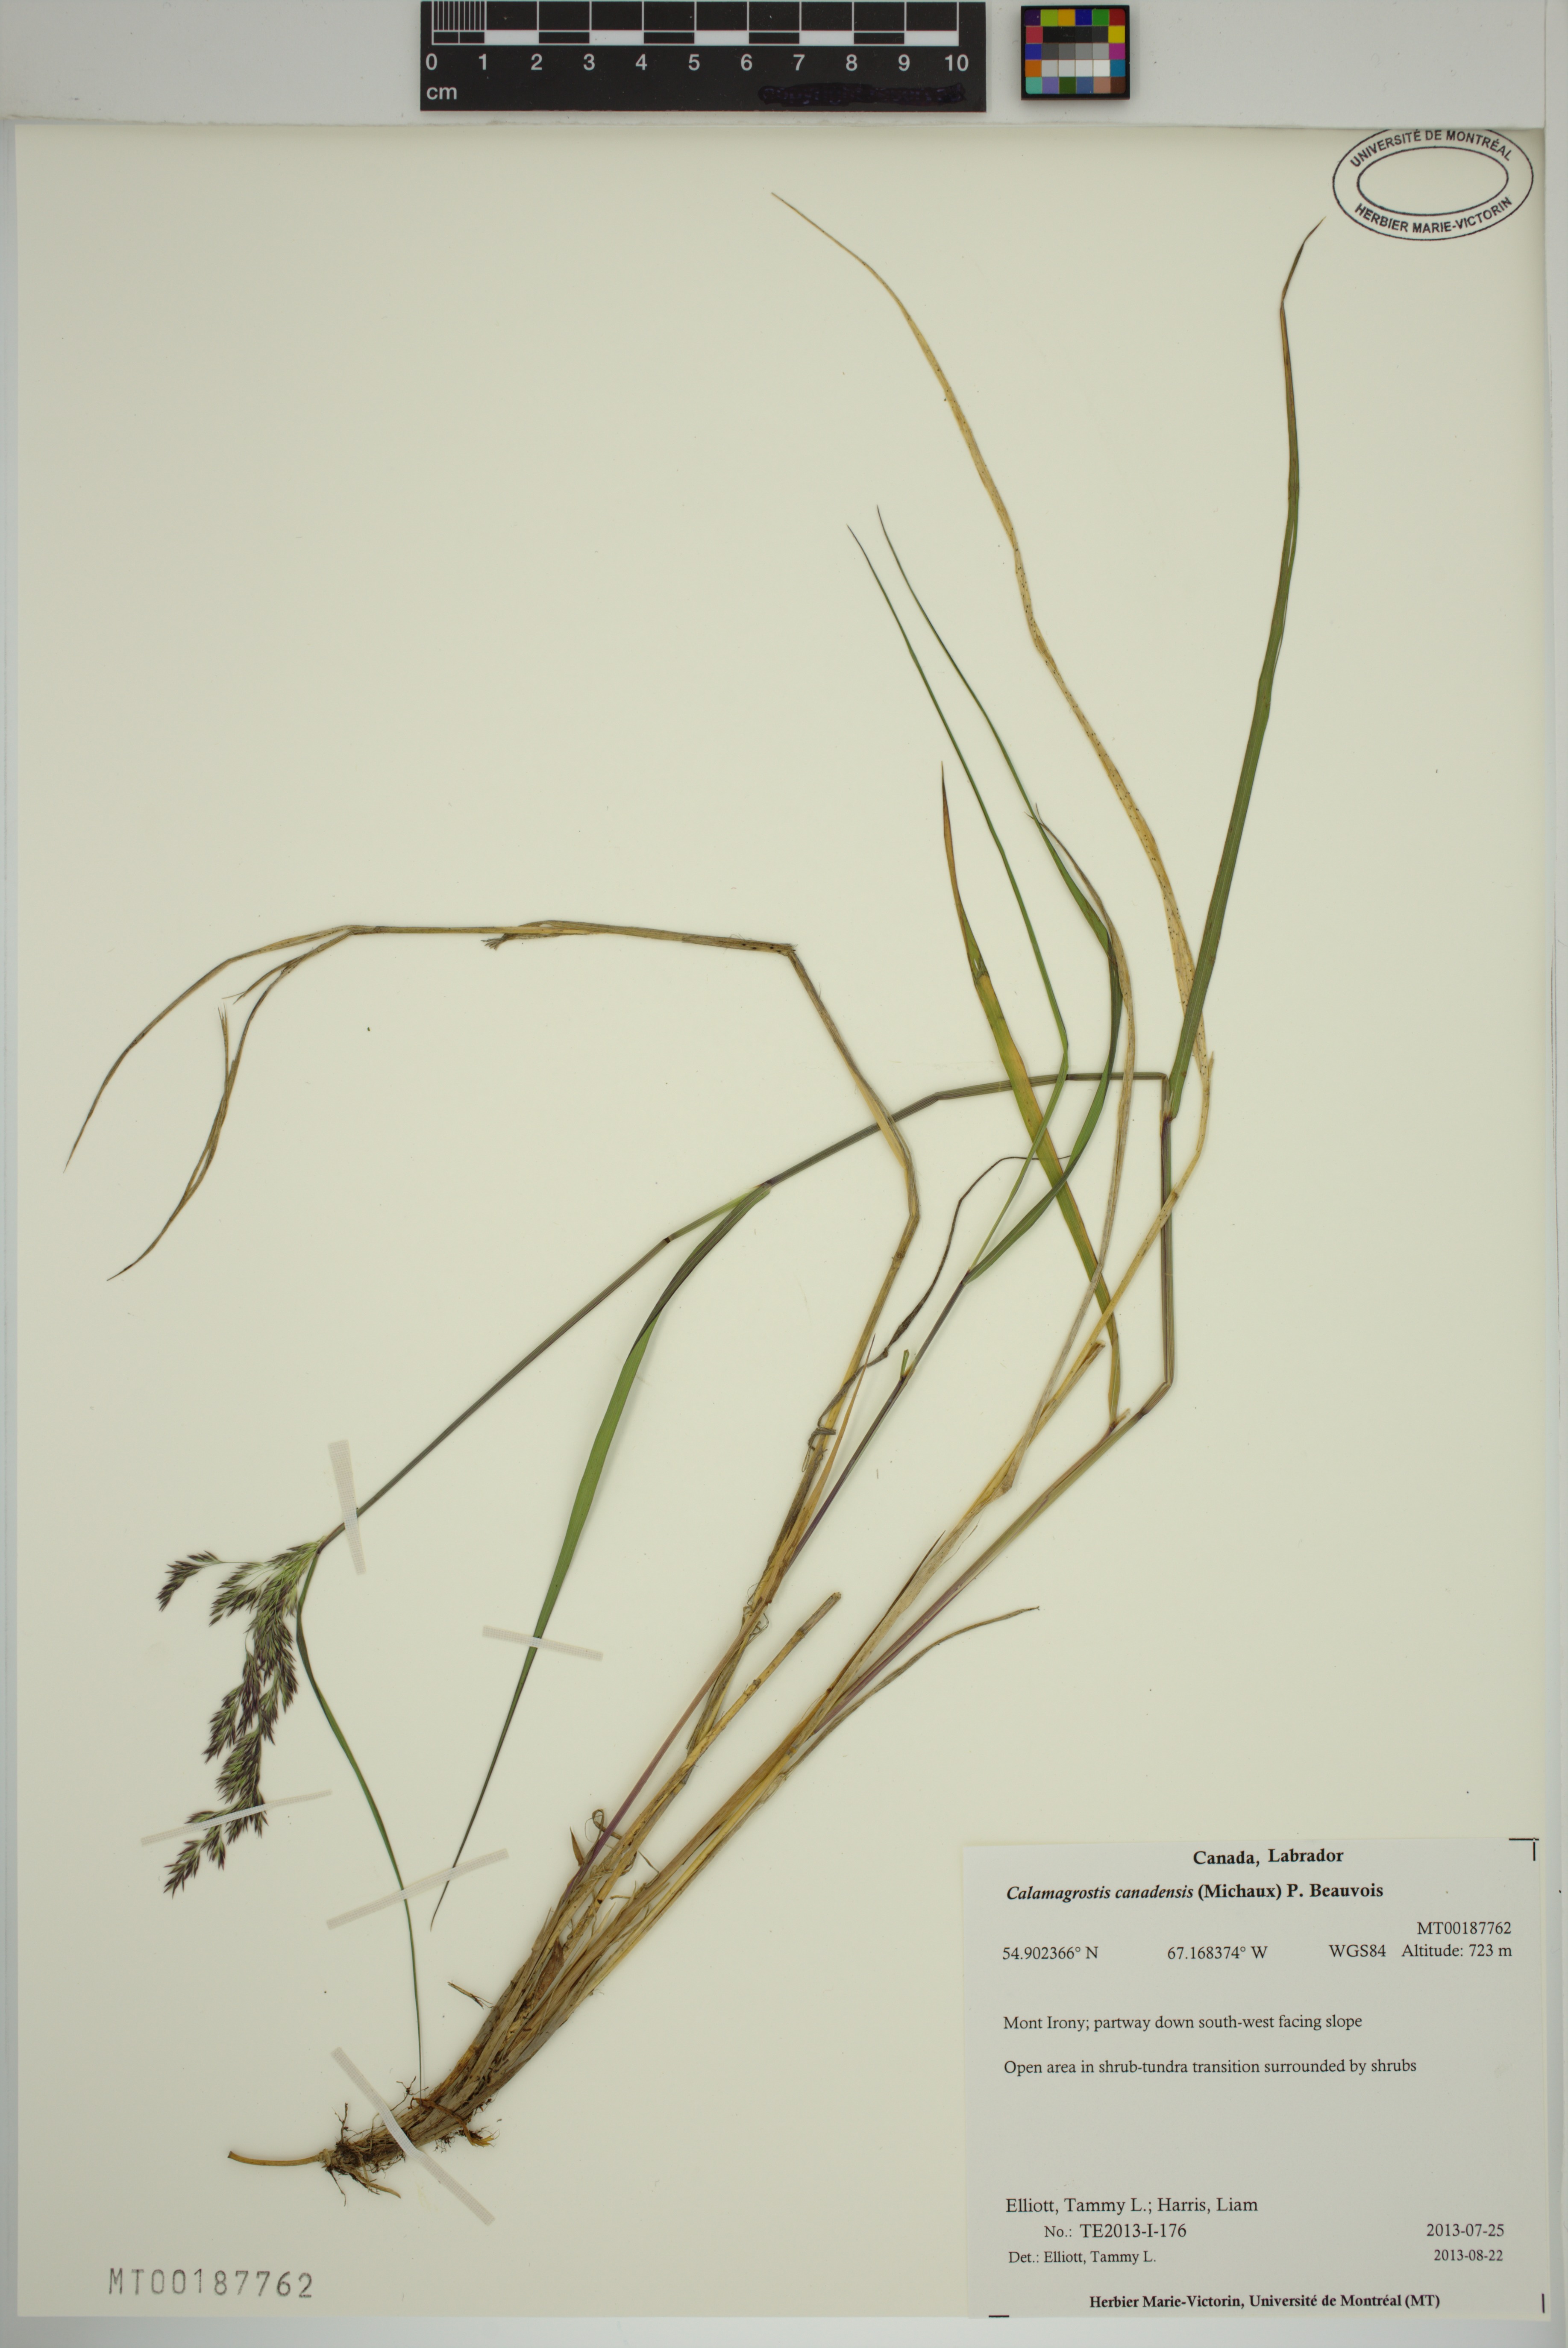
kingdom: Plantae
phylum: Tracheophyta
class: Liliopsida
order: Poales
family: Poaceae
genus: Calamagrostis
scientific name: Calamagrostis canadensis
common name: Canada bluejoint
